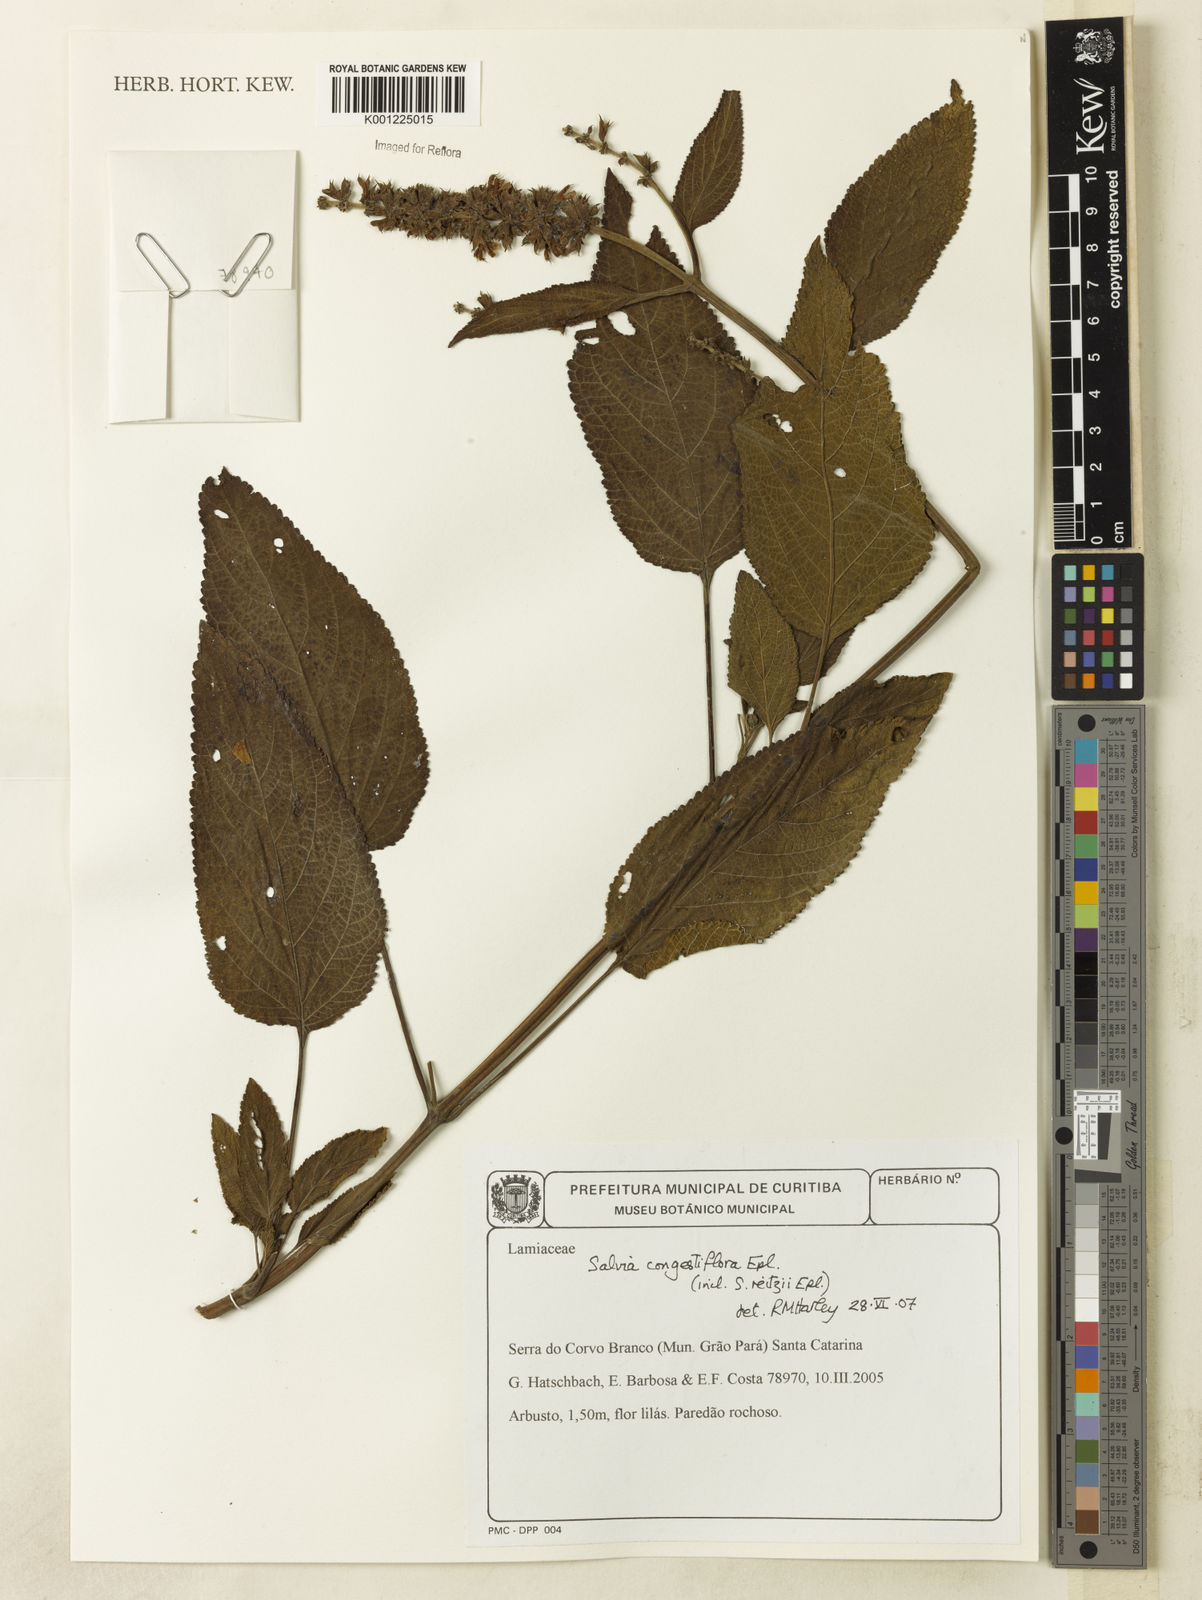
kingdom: Plantae
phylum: Tracheophyta
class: Magnoliopsida
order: Lamiales
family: Lamiaceae
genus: Salvia
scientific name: Salvia congestiflora
